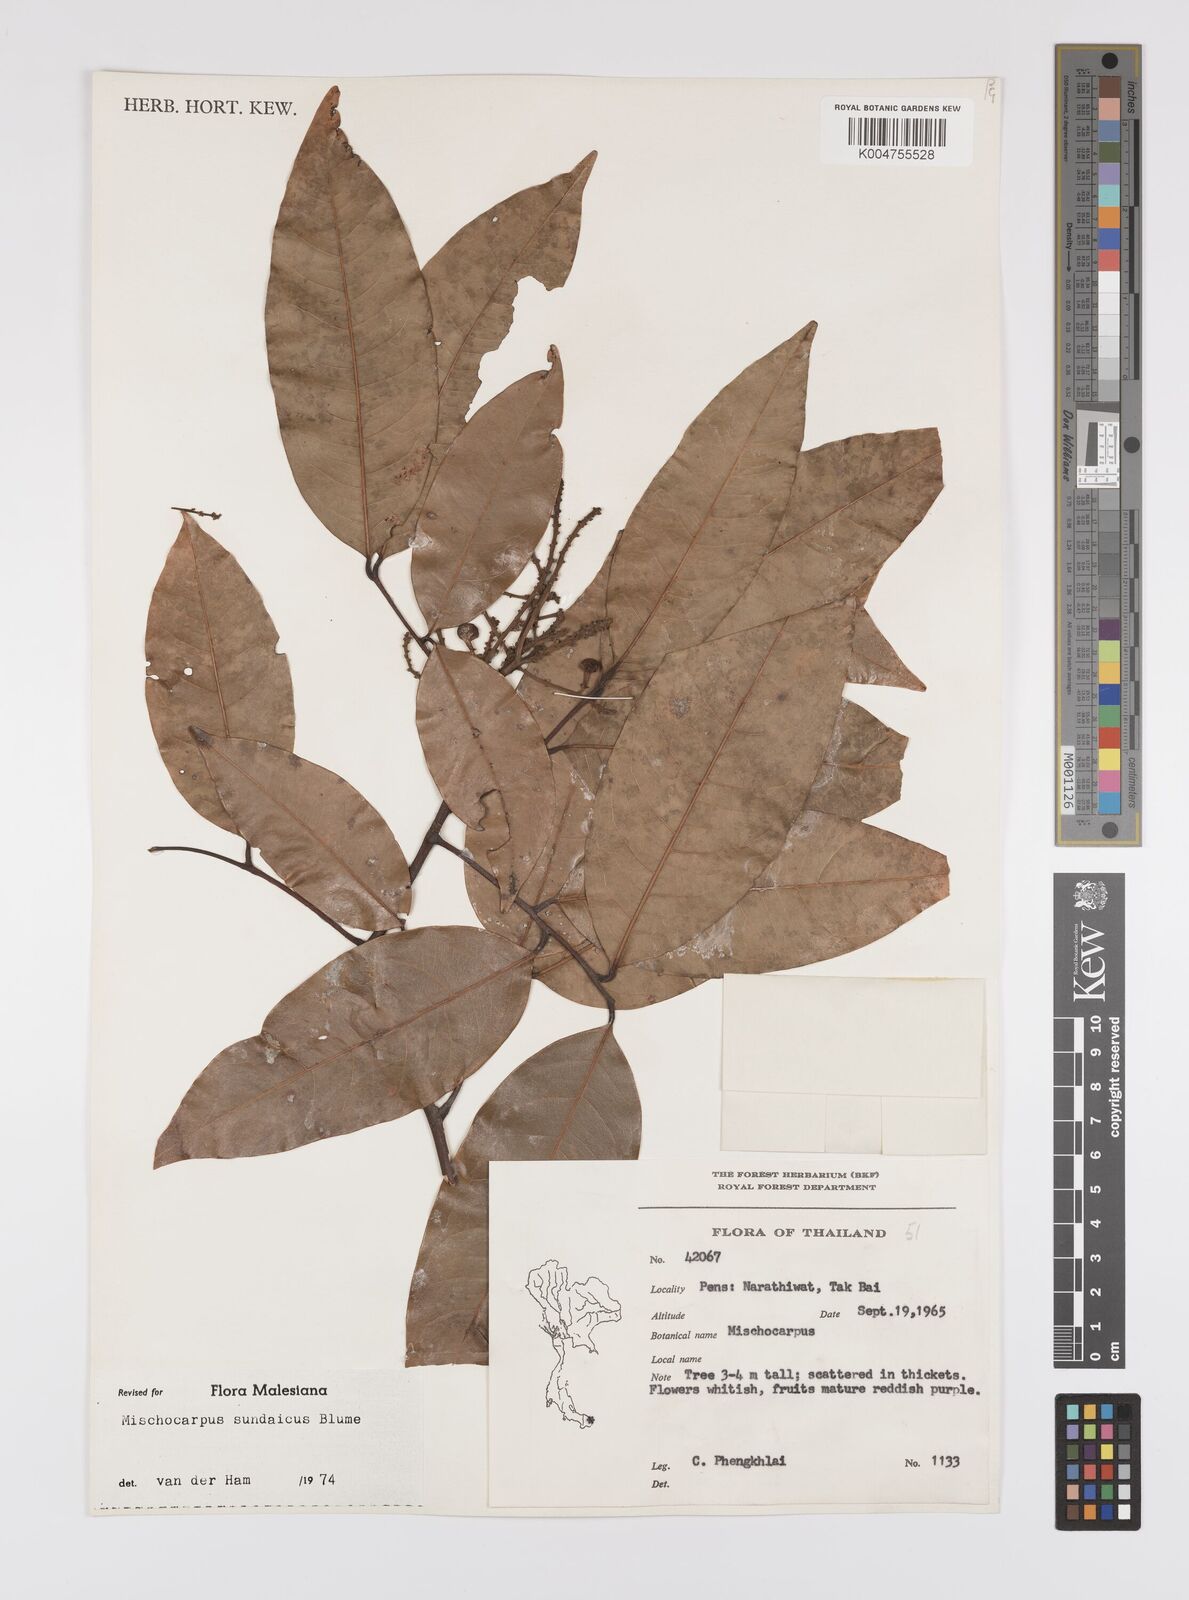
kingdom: Plantae
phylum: Tracheophyta
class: Magnoliopsida
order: Sapindales
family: Sapindaceae
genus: Mischocarpus
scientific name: Mischocarpus sundaicus
